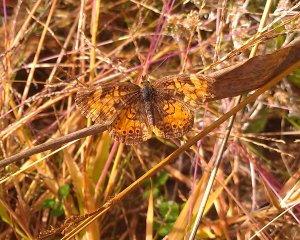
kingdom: Animalia
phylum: Arthropoda
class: Insecta
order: Lepidoptera
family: Nymphalidae
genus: Phyciodes
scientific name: Phyciodes tharos
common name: Northern Crescent
